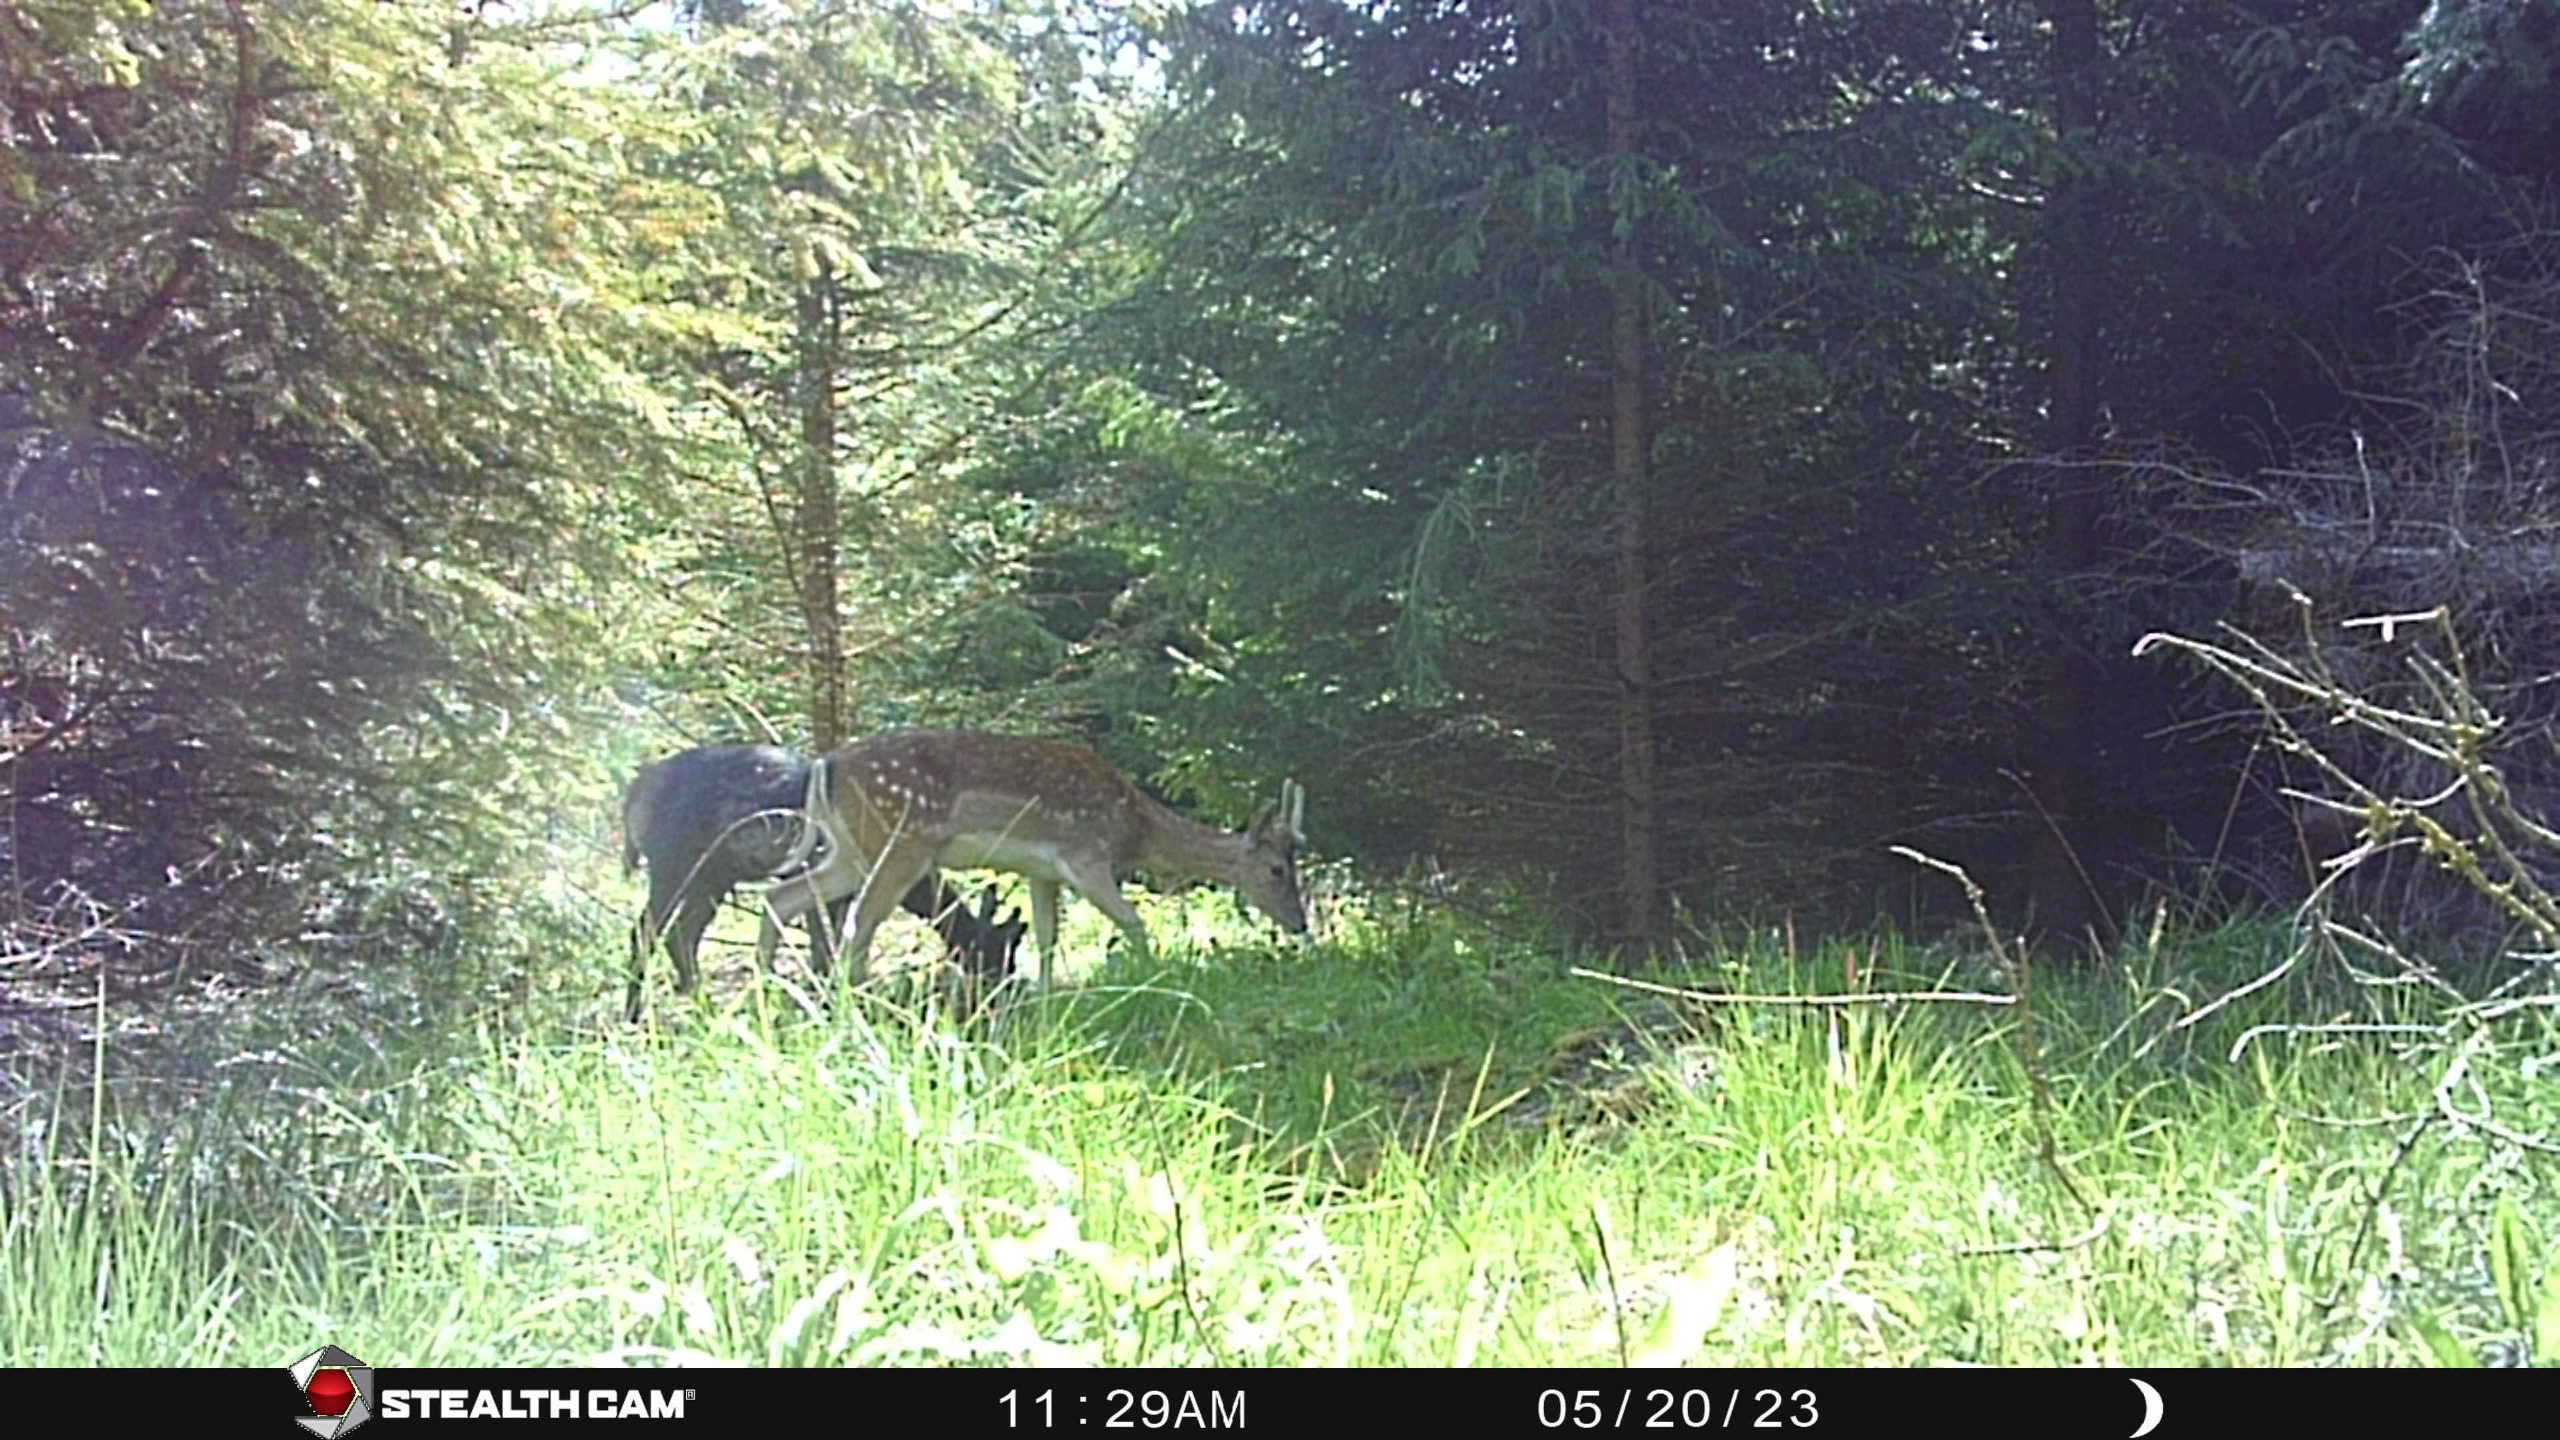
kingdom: Animalia
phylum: Chordata
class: Mammalia
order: Artiodactyla
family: Cervidae
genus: Dama
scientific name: Dama dama
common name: Dådyr
